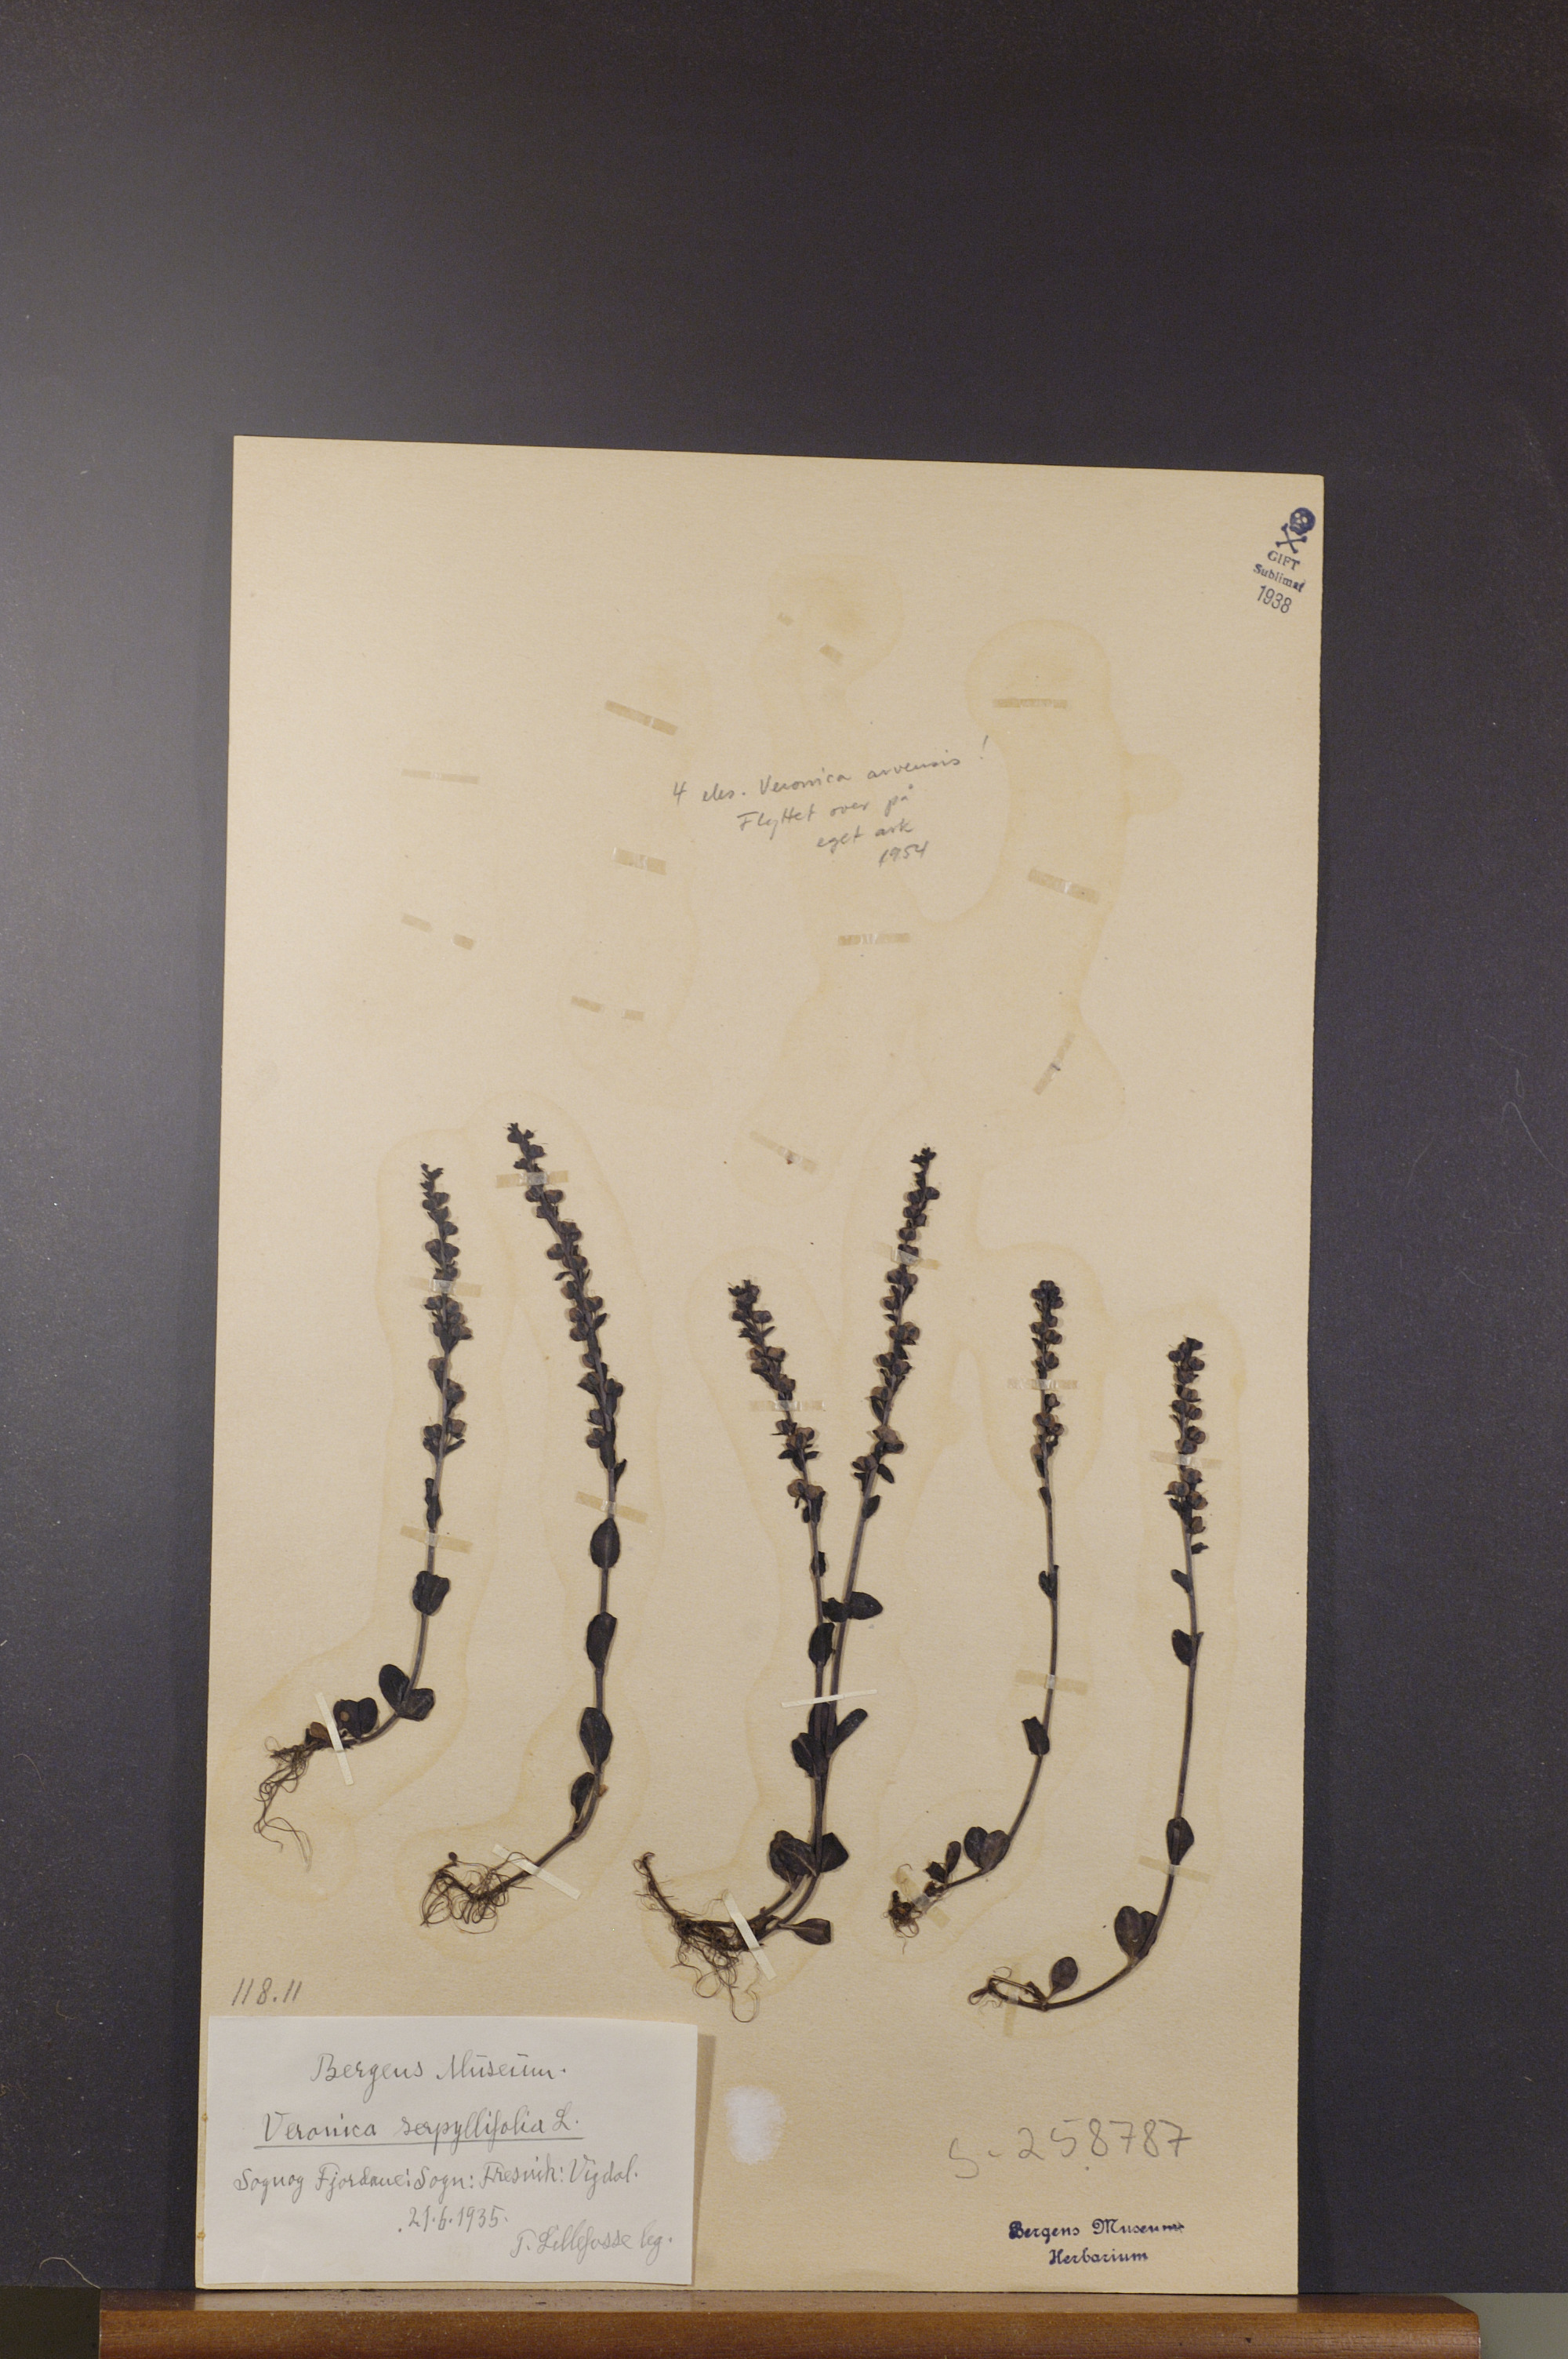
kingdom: Plantae
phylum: Tracheophyta
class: Magnoliopsida
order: Lamiales
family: Plantaginaceae
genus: Veronica
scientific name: Veronica serpyllifolia
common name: Thyme-leaved speedwell
